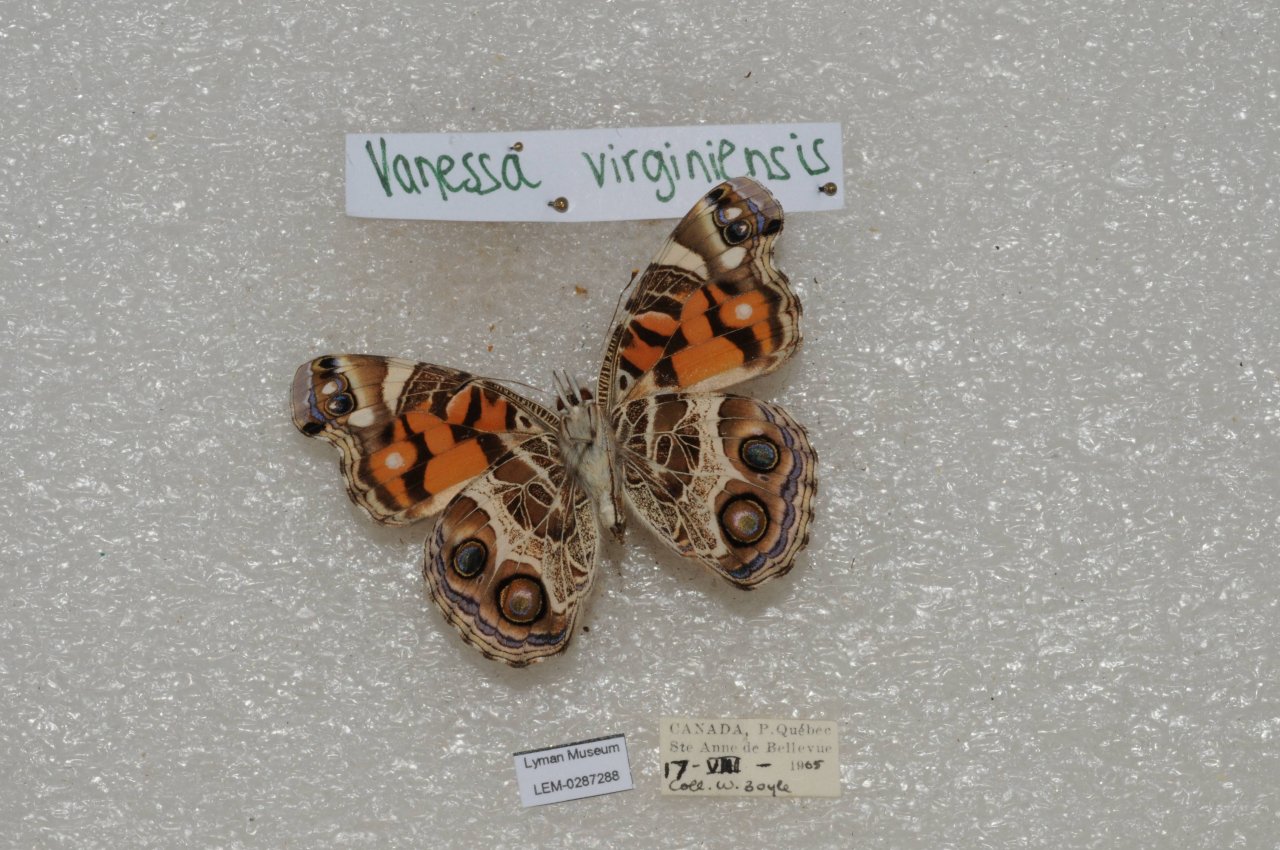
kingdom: Animalia
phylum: Arthropoda
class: Insecta
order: Lepidoptera
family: Nymphalidae
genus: Vanessa
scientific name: Vanessa virginiensis
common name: American Lady
